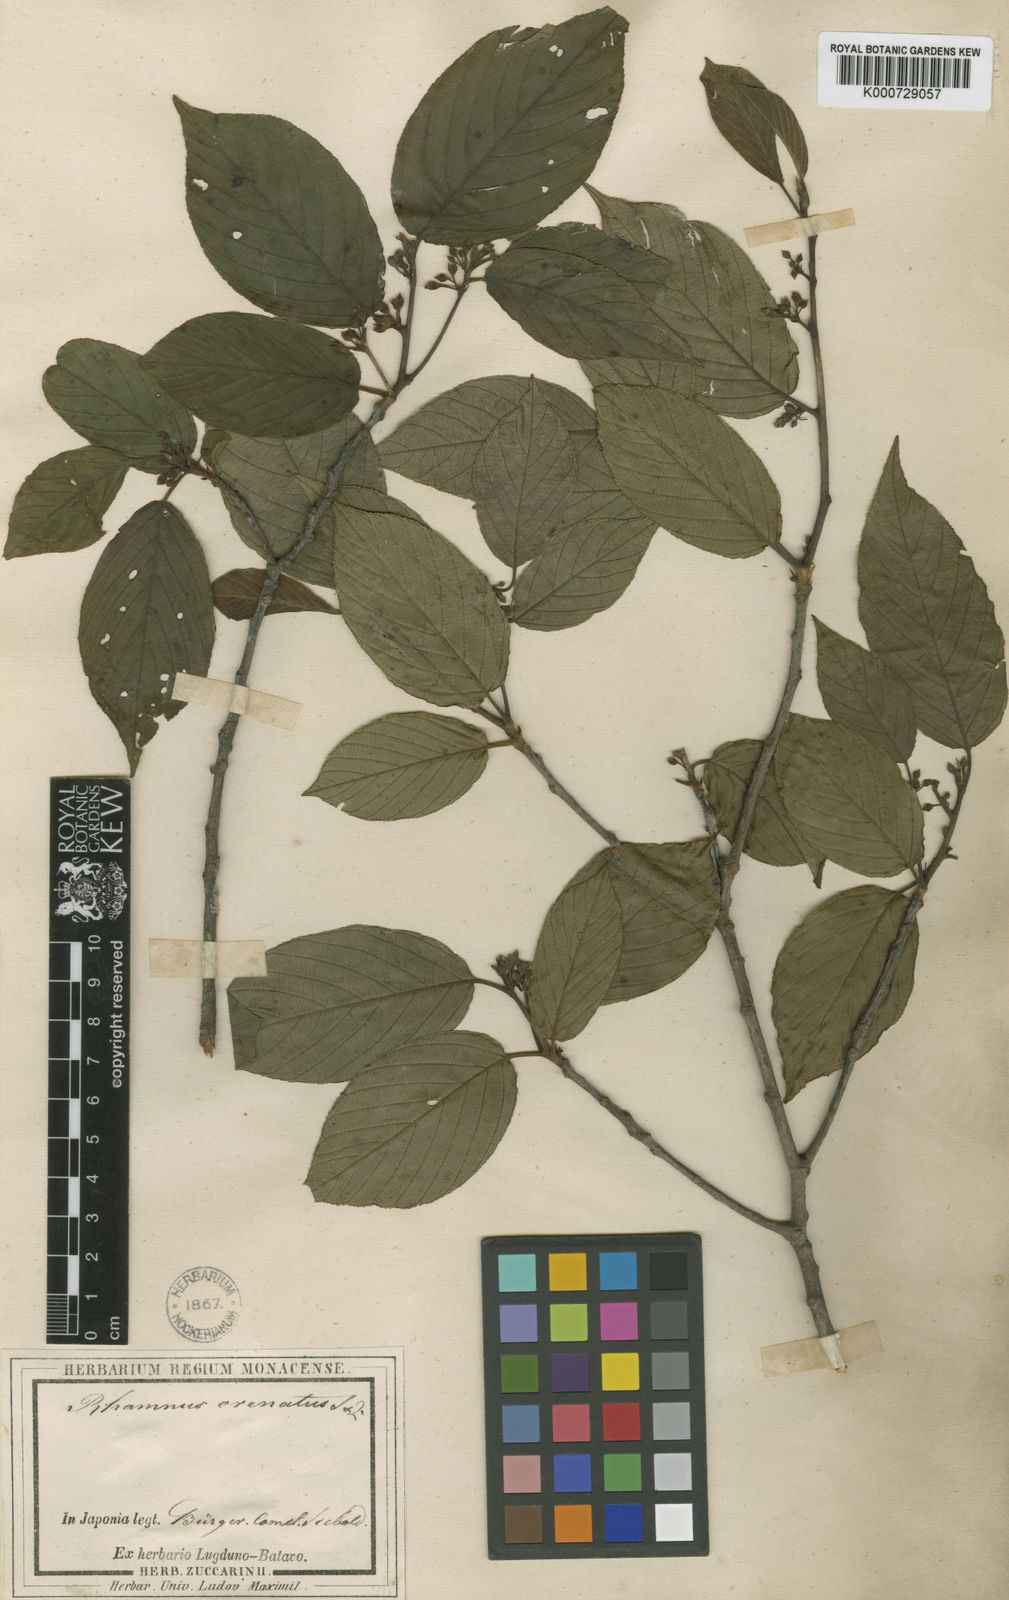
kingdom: Plantae
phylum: Tracheophyta
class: Magnoliopsida
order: Rosales
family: Rhamnaceae
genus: Frangula
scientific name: Frangula crenata
